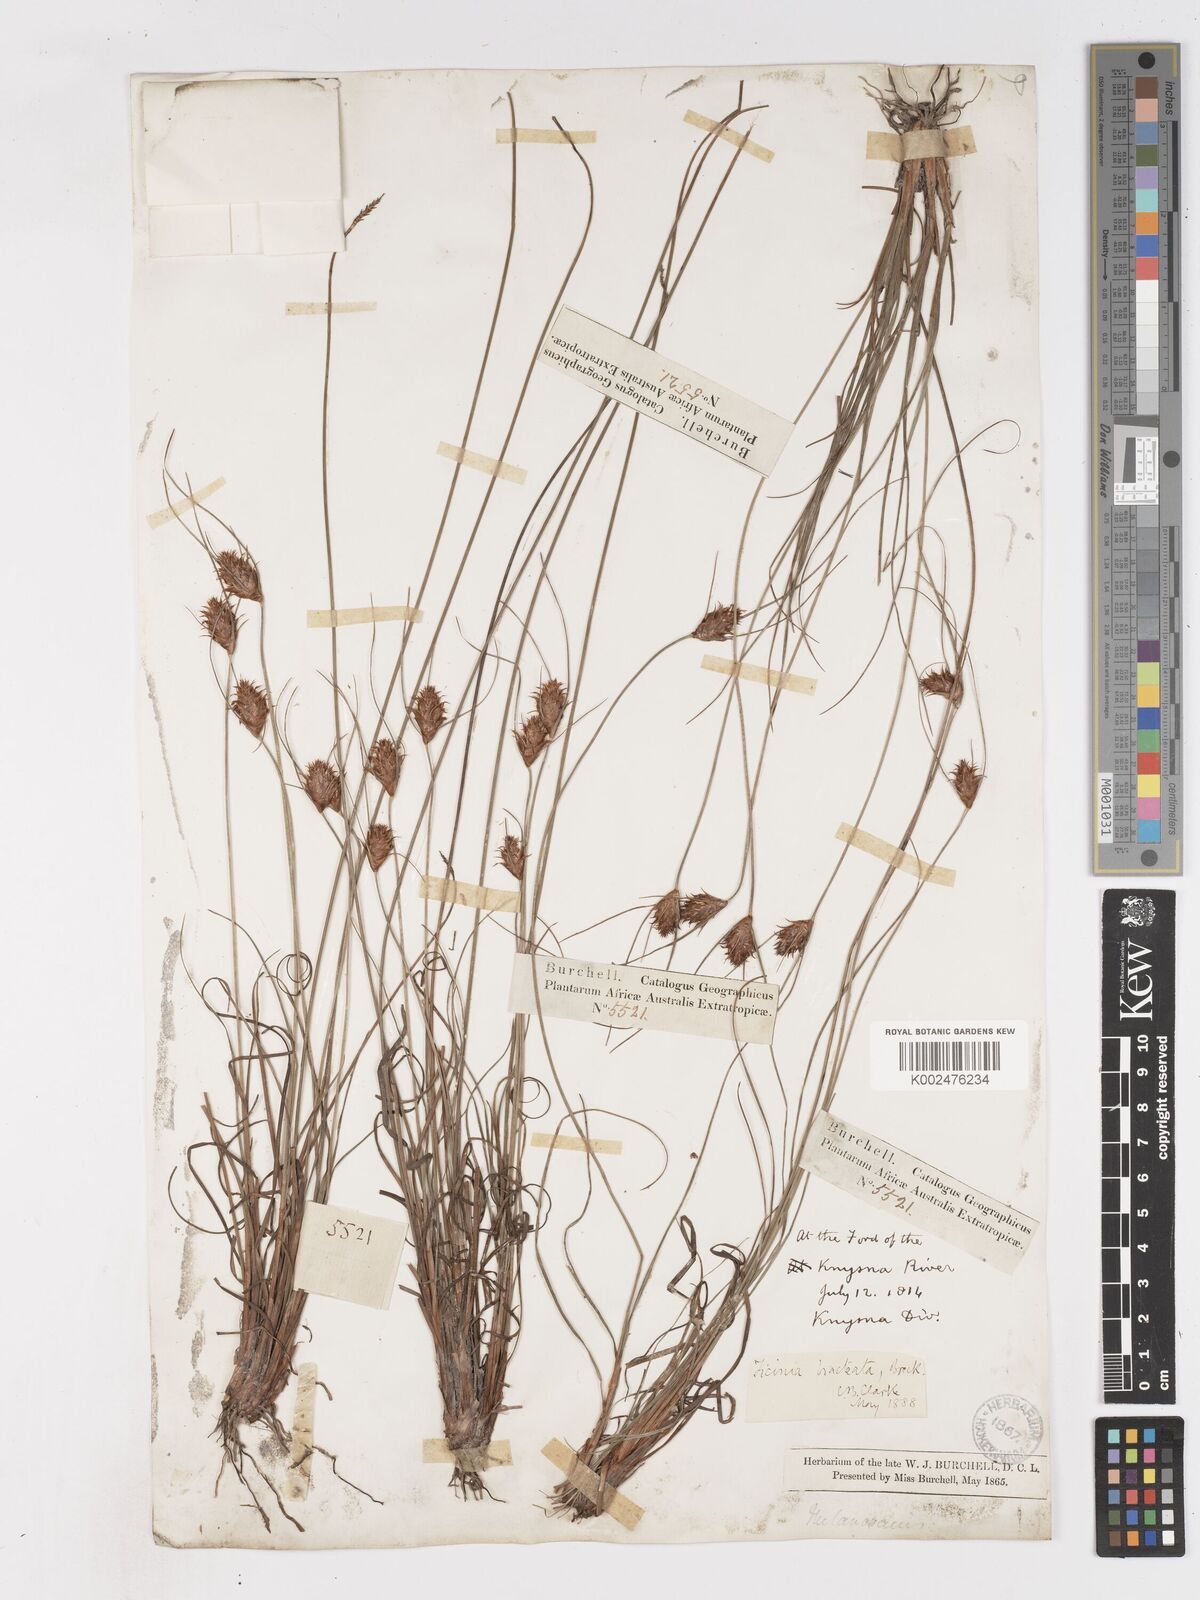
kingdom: Plantae
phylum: Tracheophyta
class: Liliopsida
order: Poales
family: Cyperaceae
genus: Ficinia
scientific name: Ficinia nigrescens
